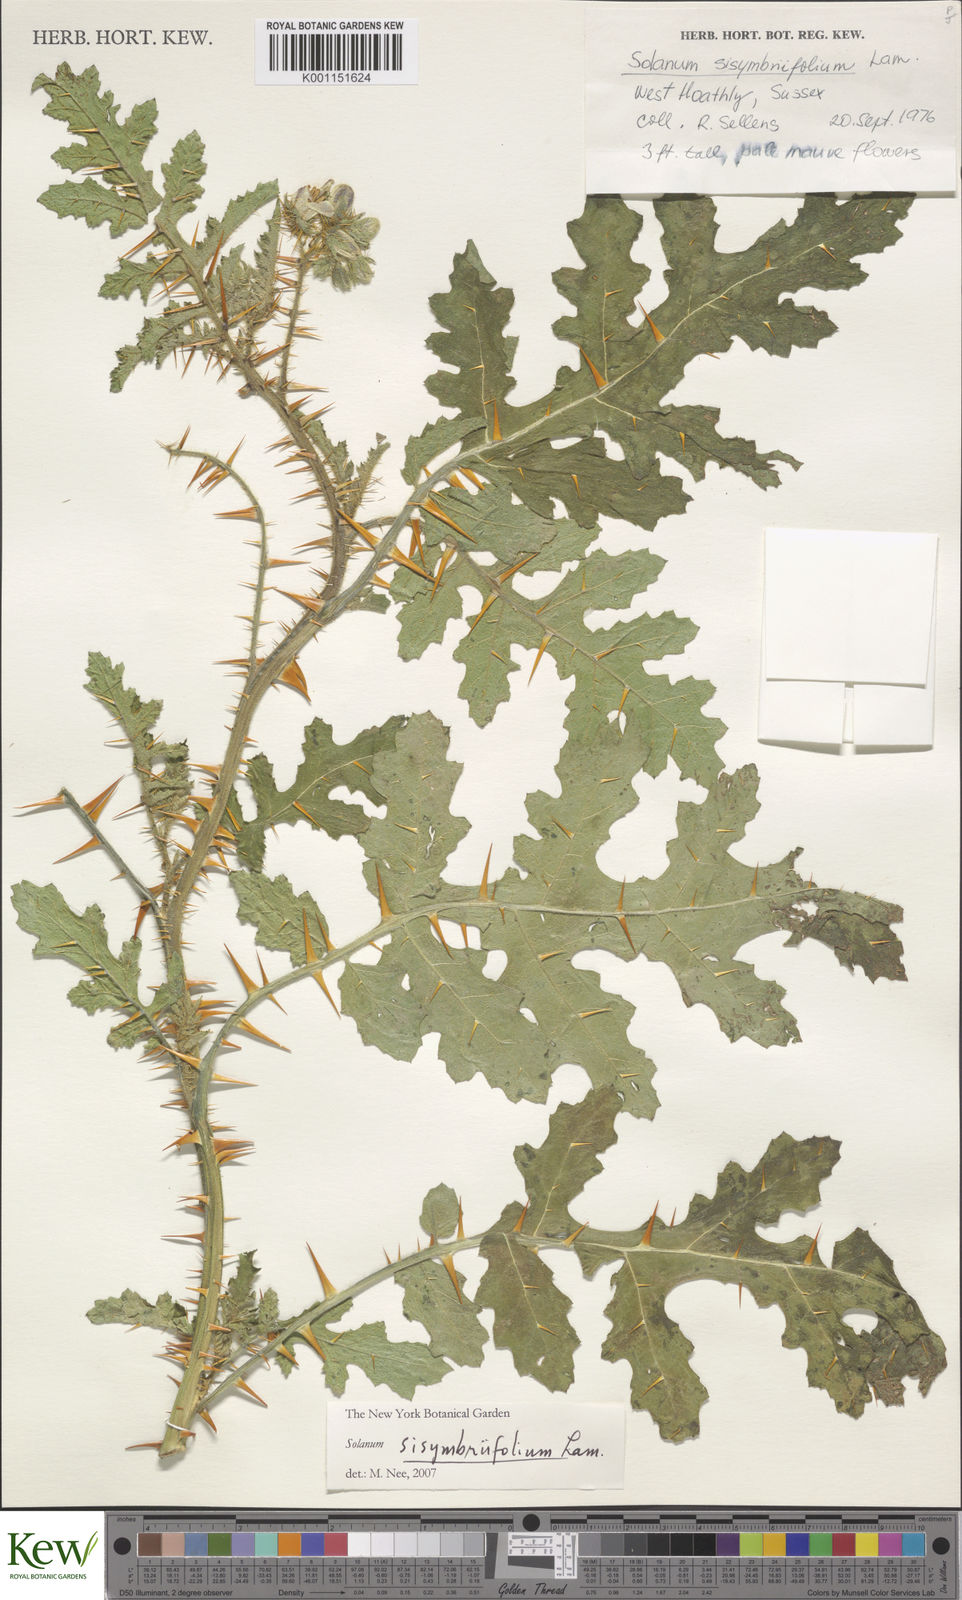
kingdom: Plantae
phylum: Tracheophyta
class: Magnoliopsida
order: Solanales
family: Solanaceae
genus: Solanum
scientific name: Solanum sisymbriifolium
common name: Red buffalo-bur
